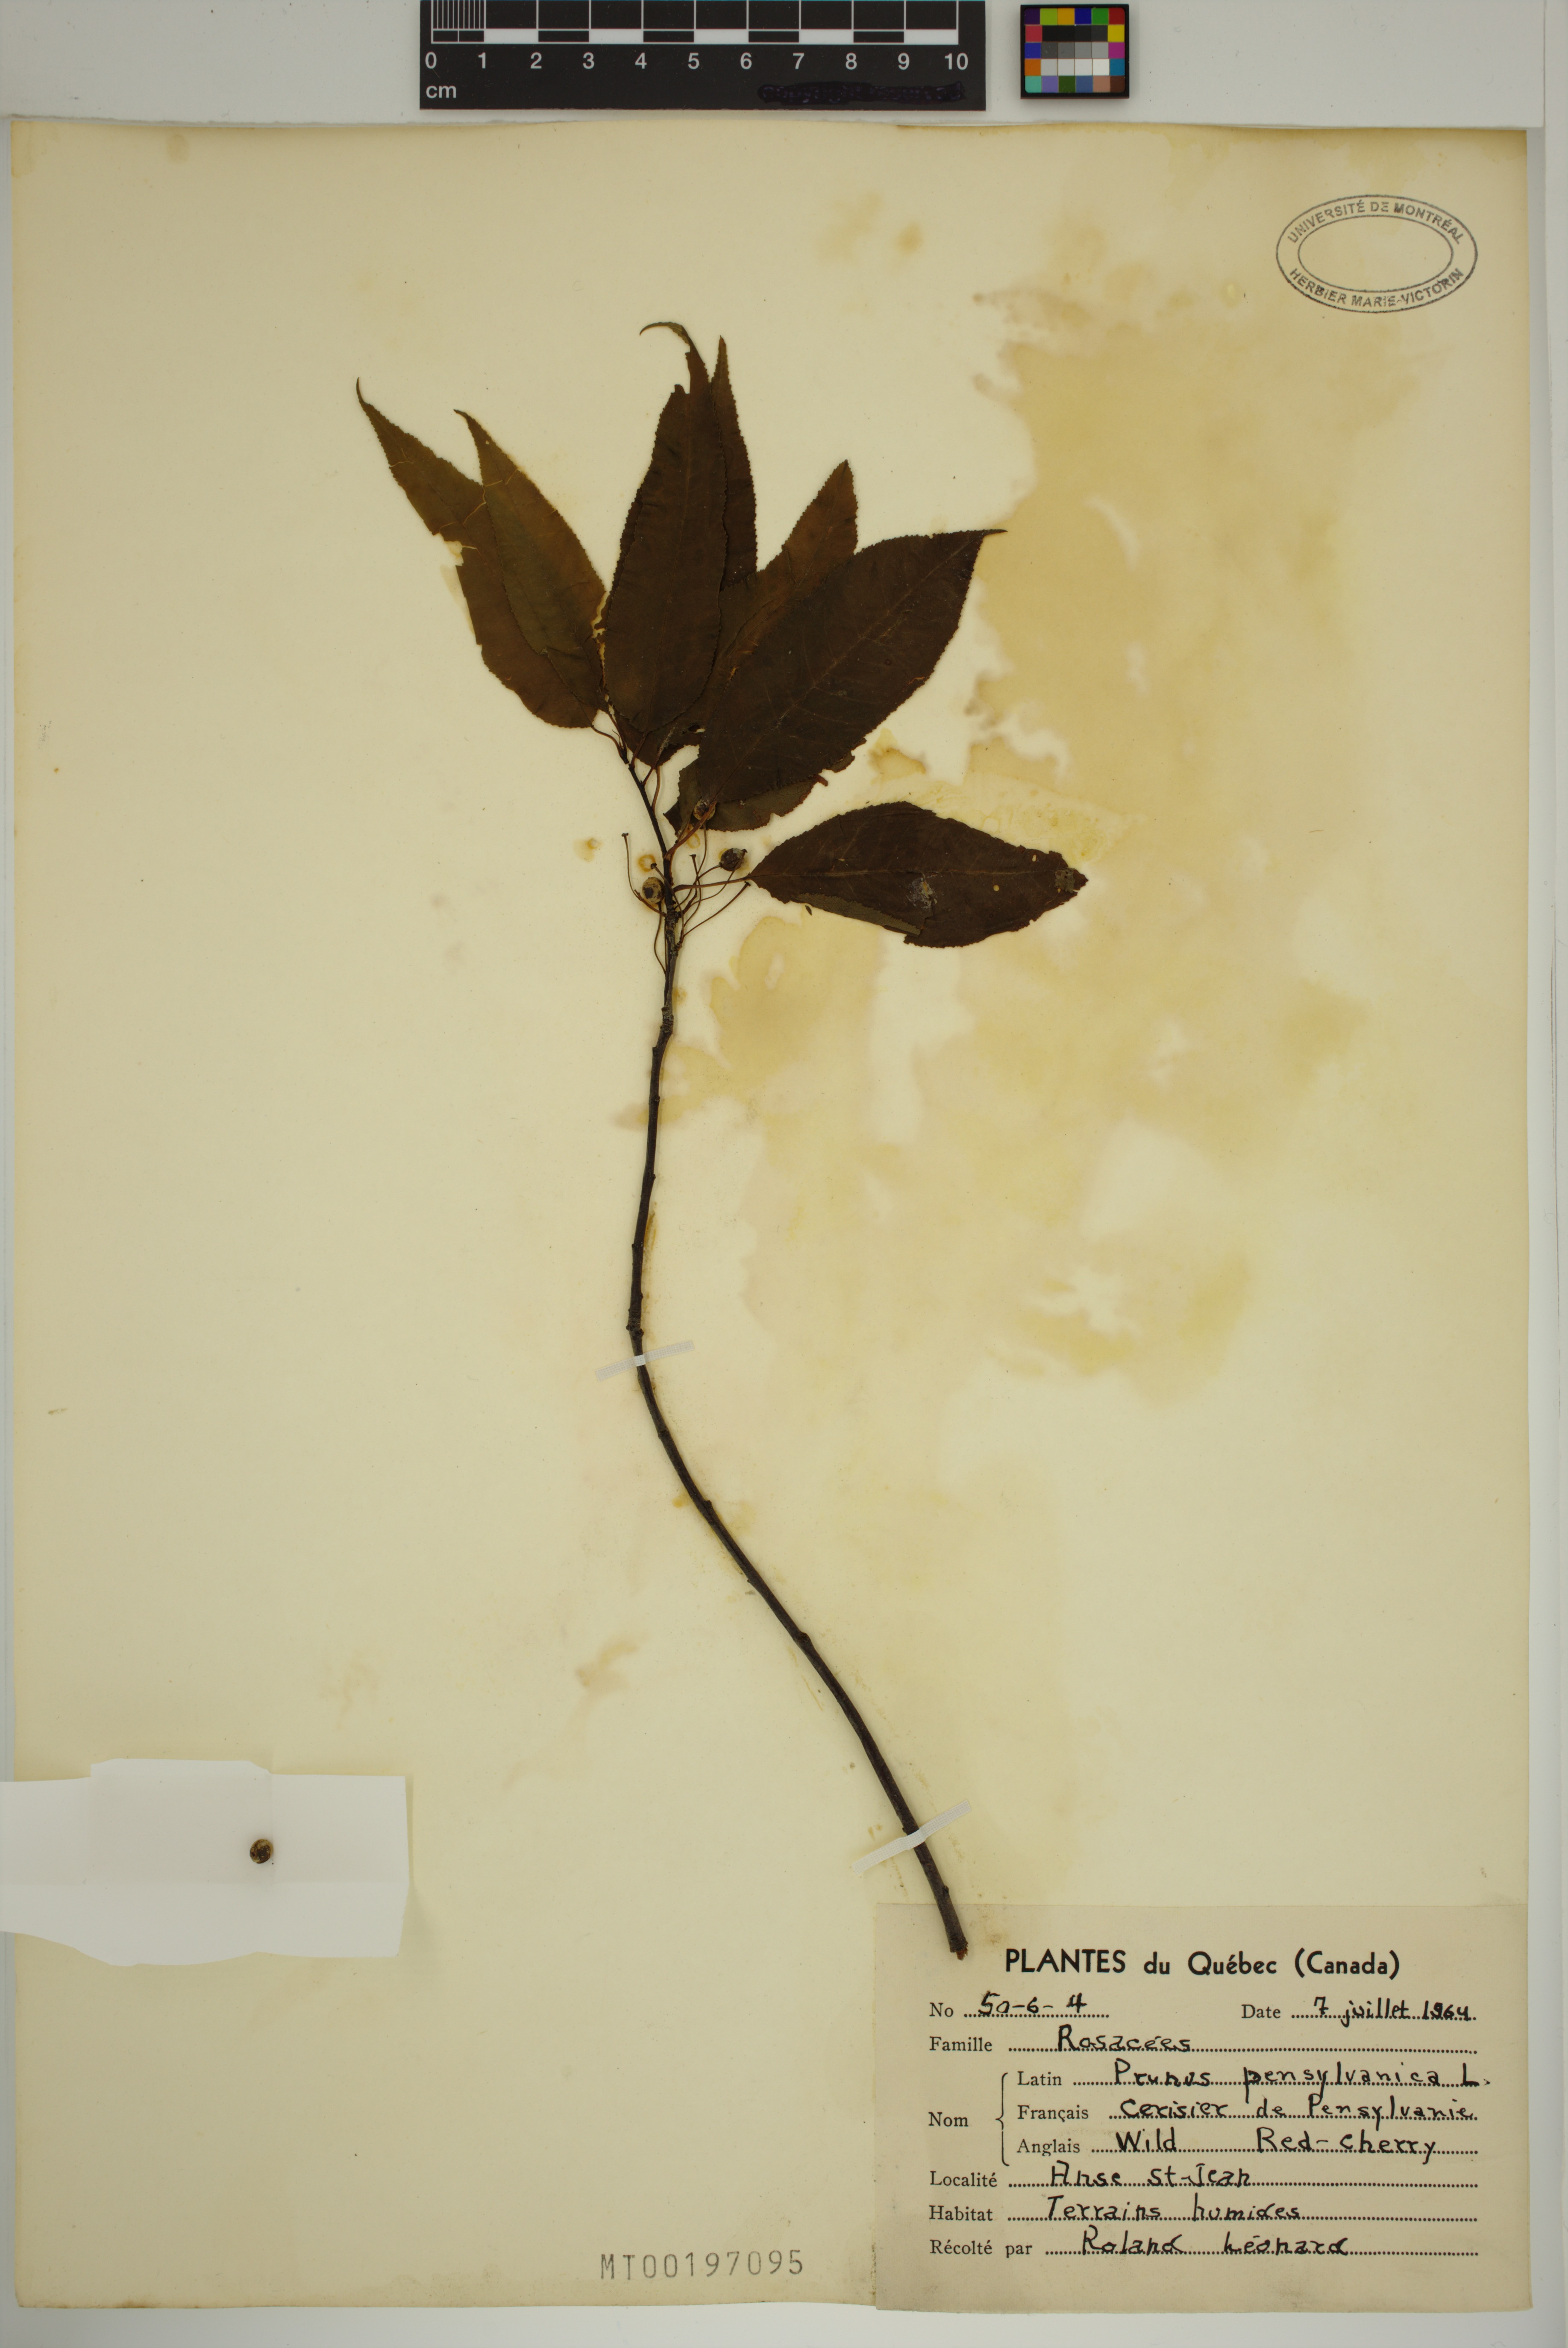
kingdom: Plantae
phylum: Tracheophyta
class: Magnoliopsida
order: Rosales
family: Rosaceae
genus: Prunus
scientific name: Prunus pensylvanica
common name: Pin cherry
